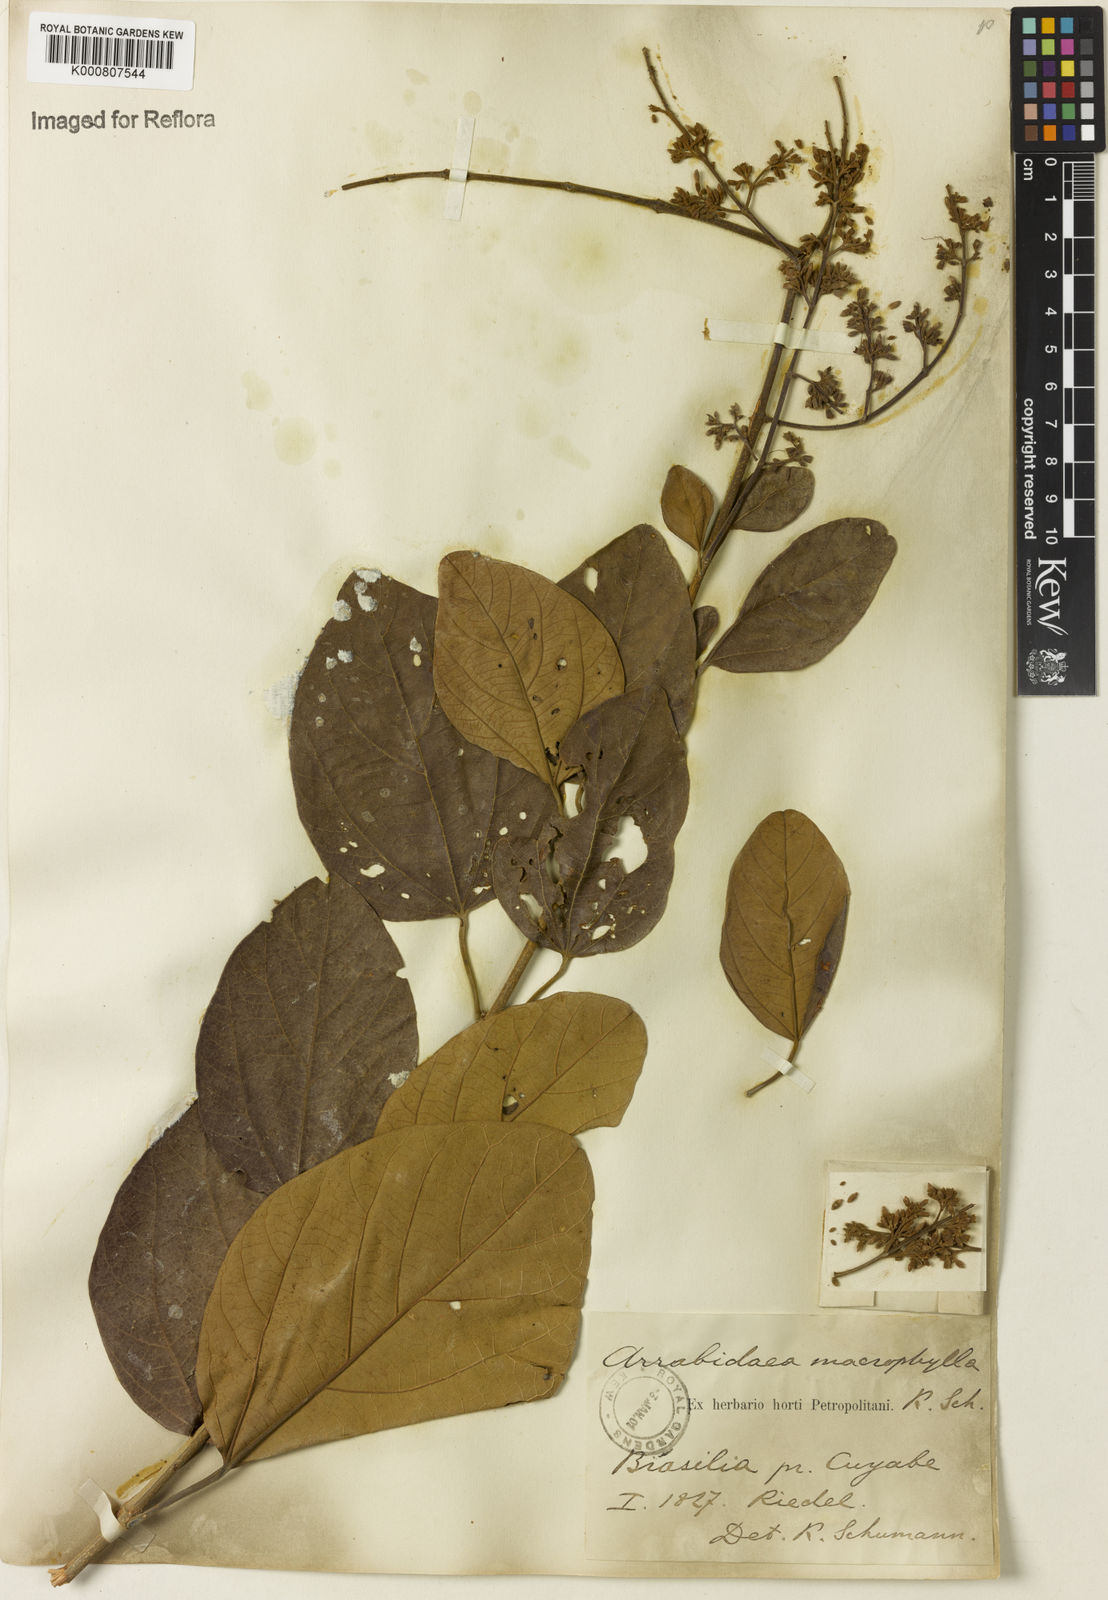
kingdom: Plantae
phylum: Tracheophyta
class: Magnoliopsida
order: Lamiales
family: Bignoniaceae
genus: Xylophragma
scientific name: Xylophragma platyphyllum
